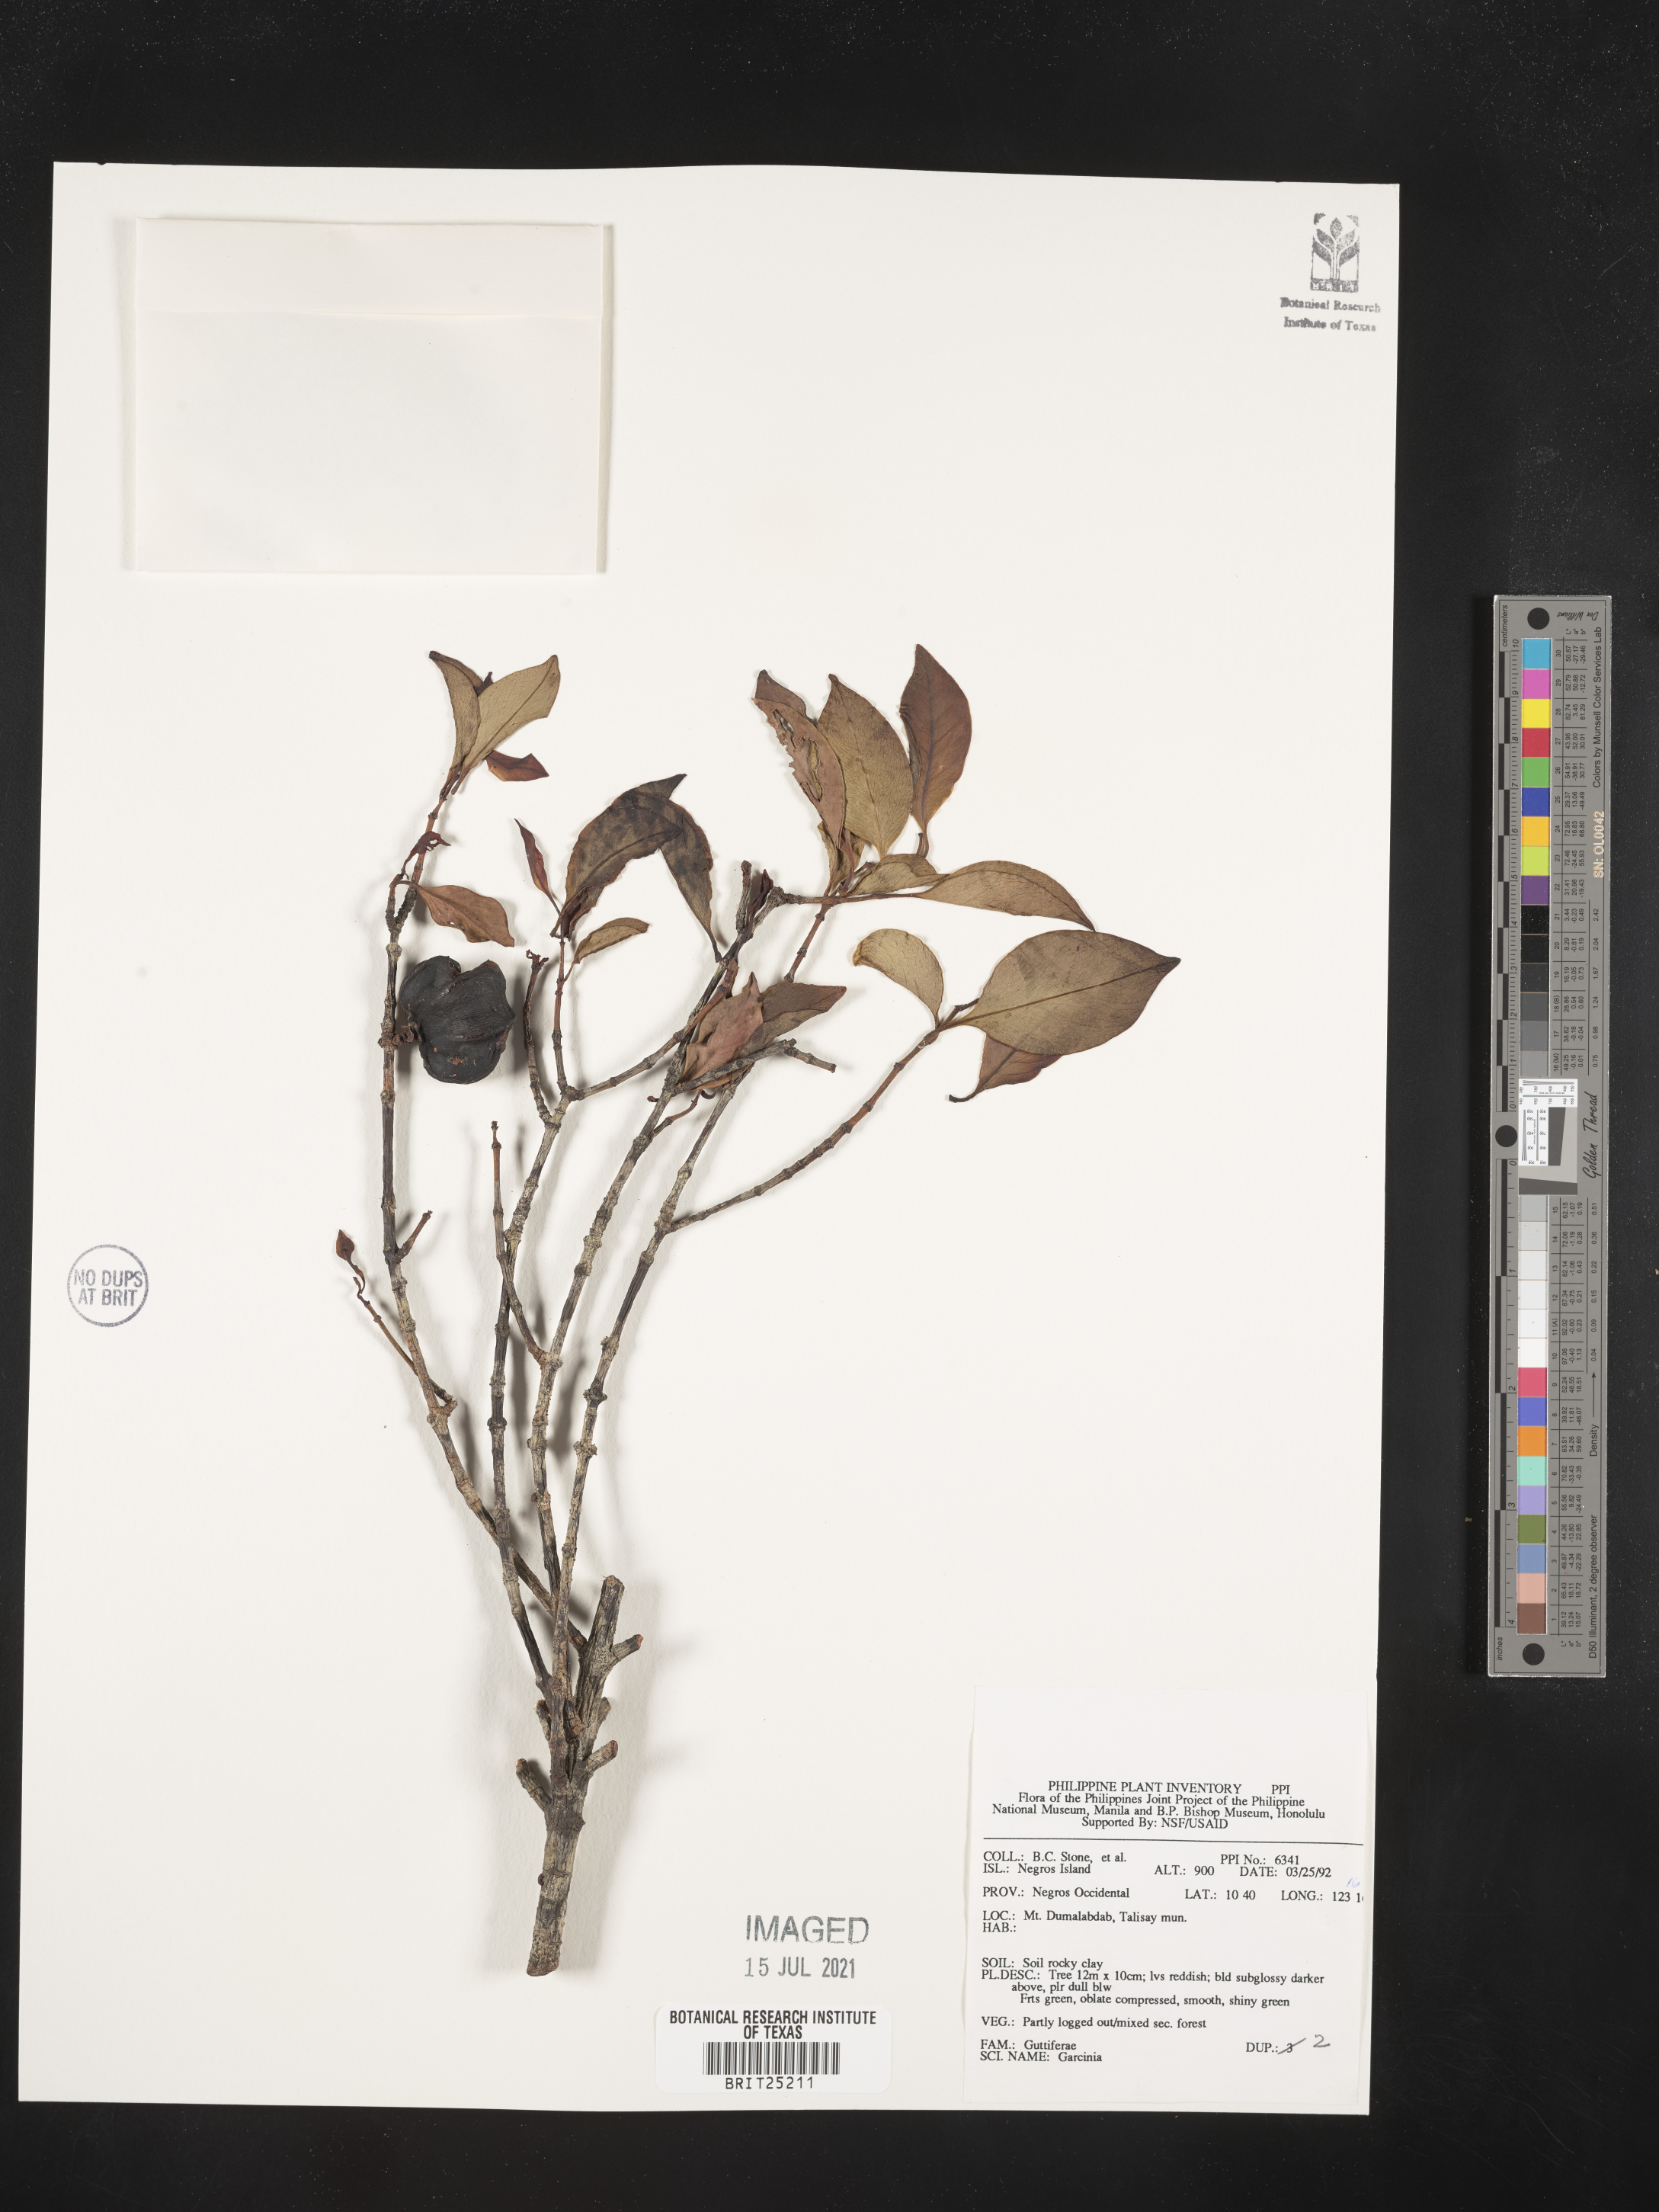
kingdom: Plantae
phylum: Tracheophyta
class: Magnoliopsida
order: Malpighiales
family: Clusiaceae
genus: Garcinia
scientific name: Garcinia
